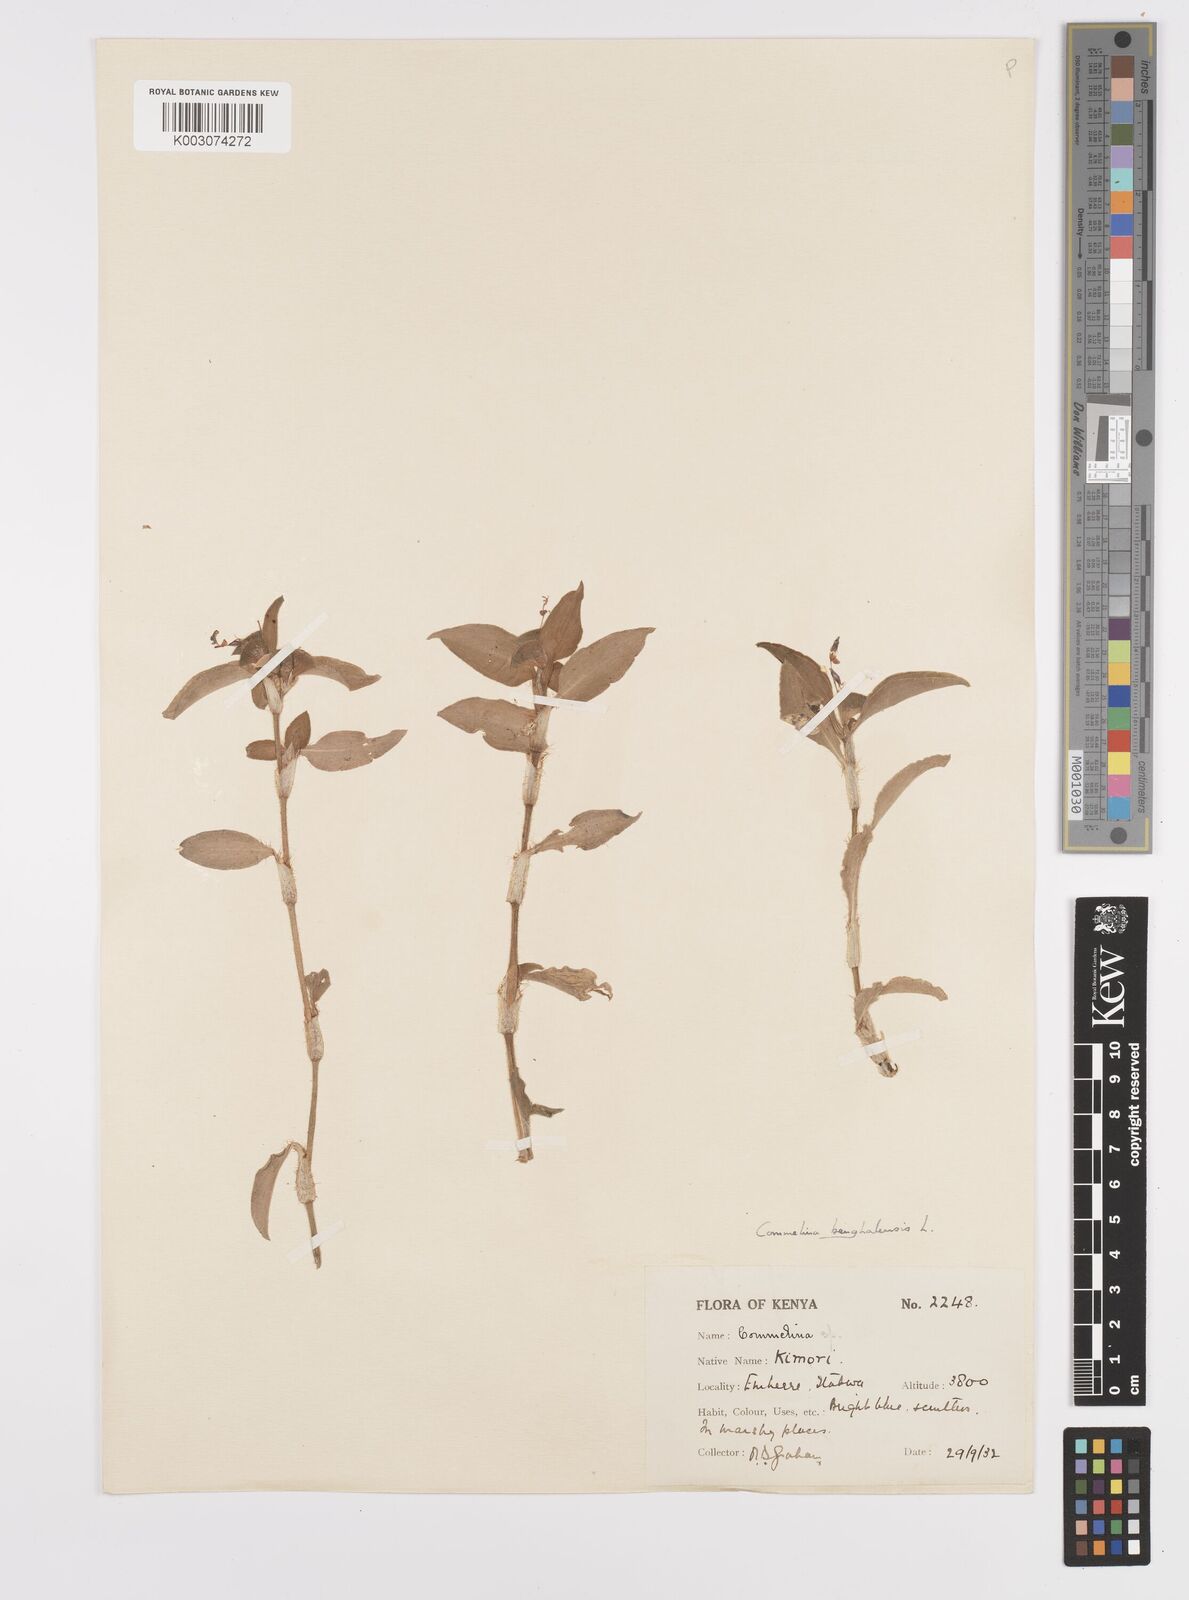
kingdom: Plantae
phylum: Tracheophyta
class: Liliopsida
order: Commelinales
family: Commelinaceae
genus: Commelina
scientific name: Commelina benghalensis
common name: Jio
